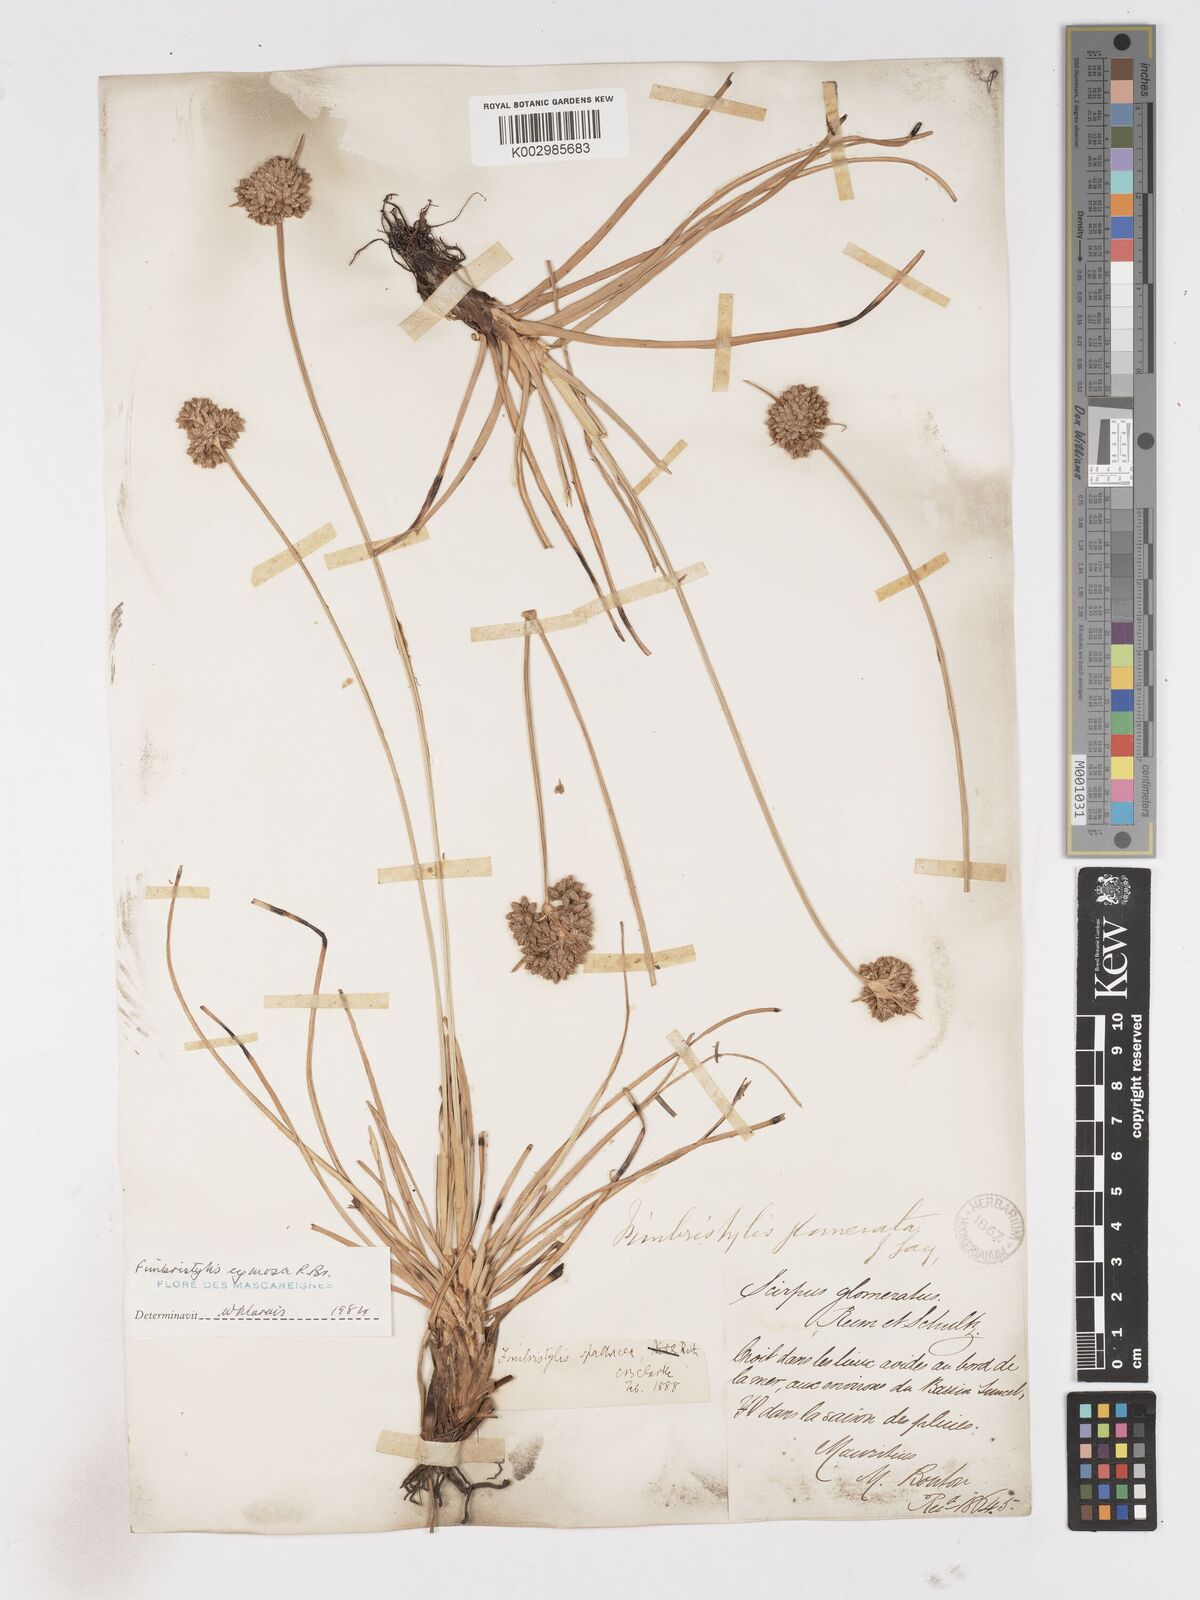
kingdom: Plantae
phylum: Tracheophyta
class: Liliopsida
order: Poales
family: Cyperaceae
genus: Fimbristylis
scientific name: Fimbristylis cymosa
